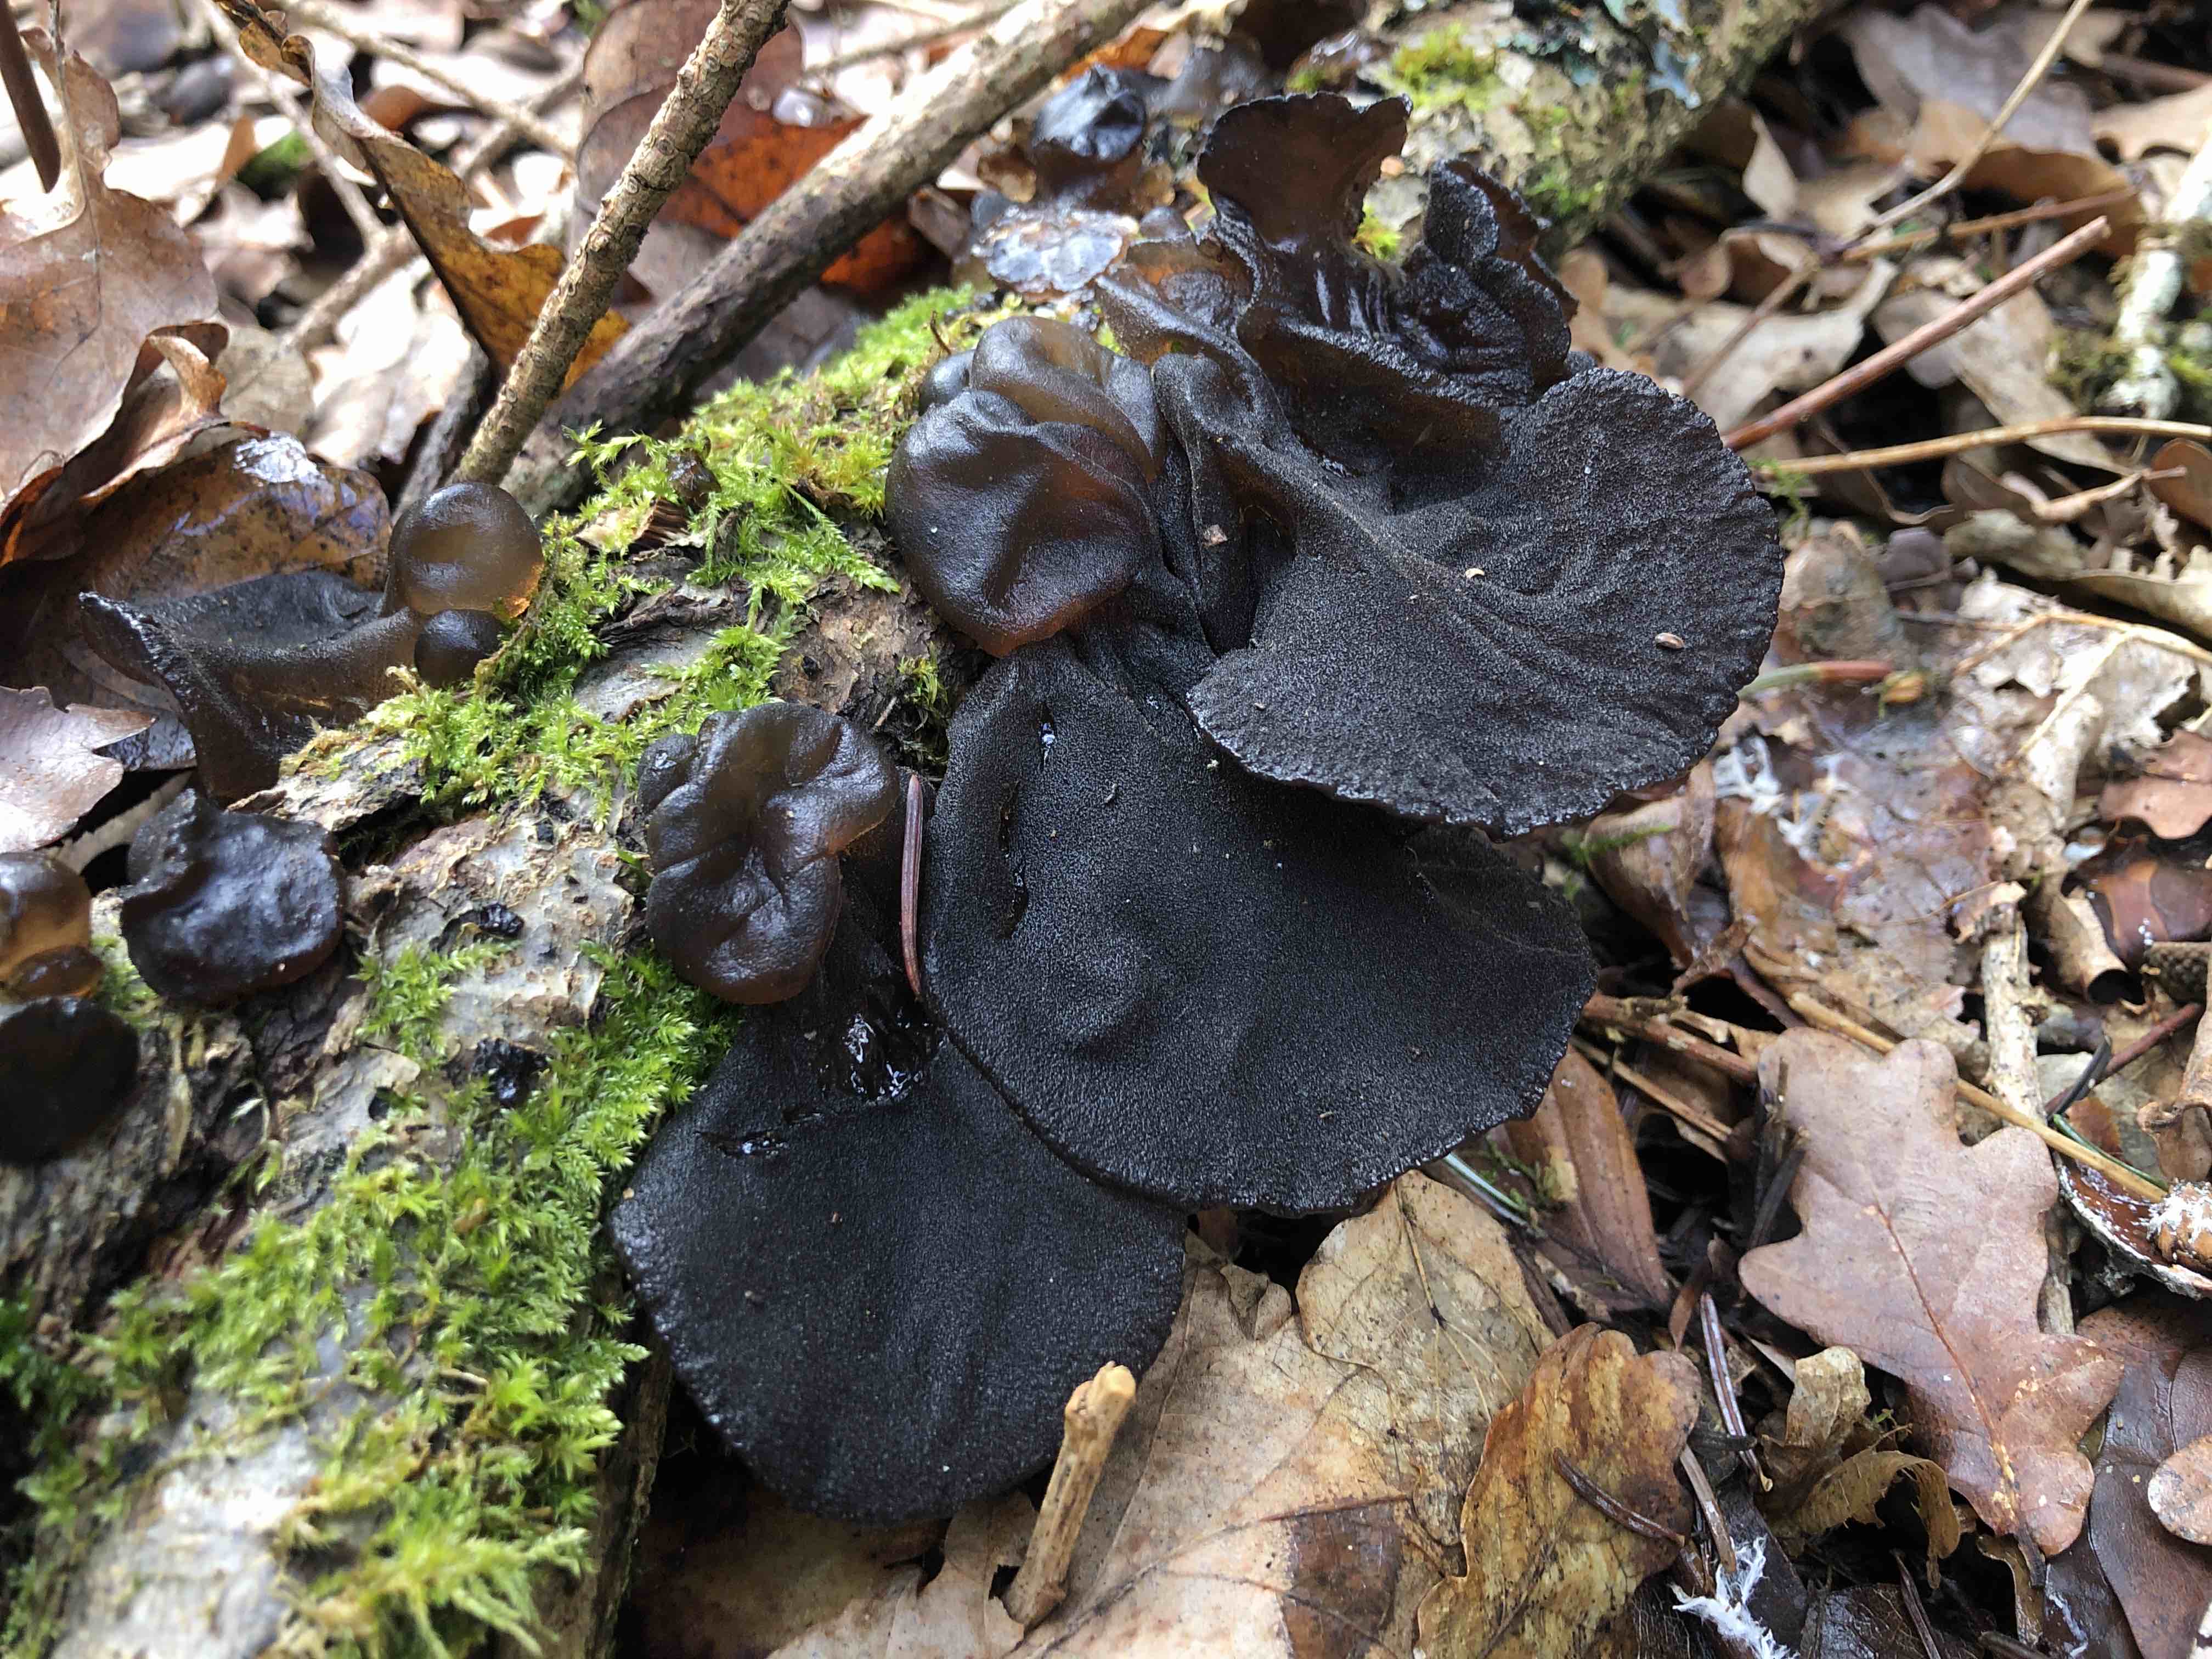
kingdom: Fungi
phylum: Basidiomycota
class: Agaricomycetes
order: Auriculariales
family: Auriculariaceae
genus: Exidia
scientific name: Exidia glandulosa
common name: ege-bævretop
